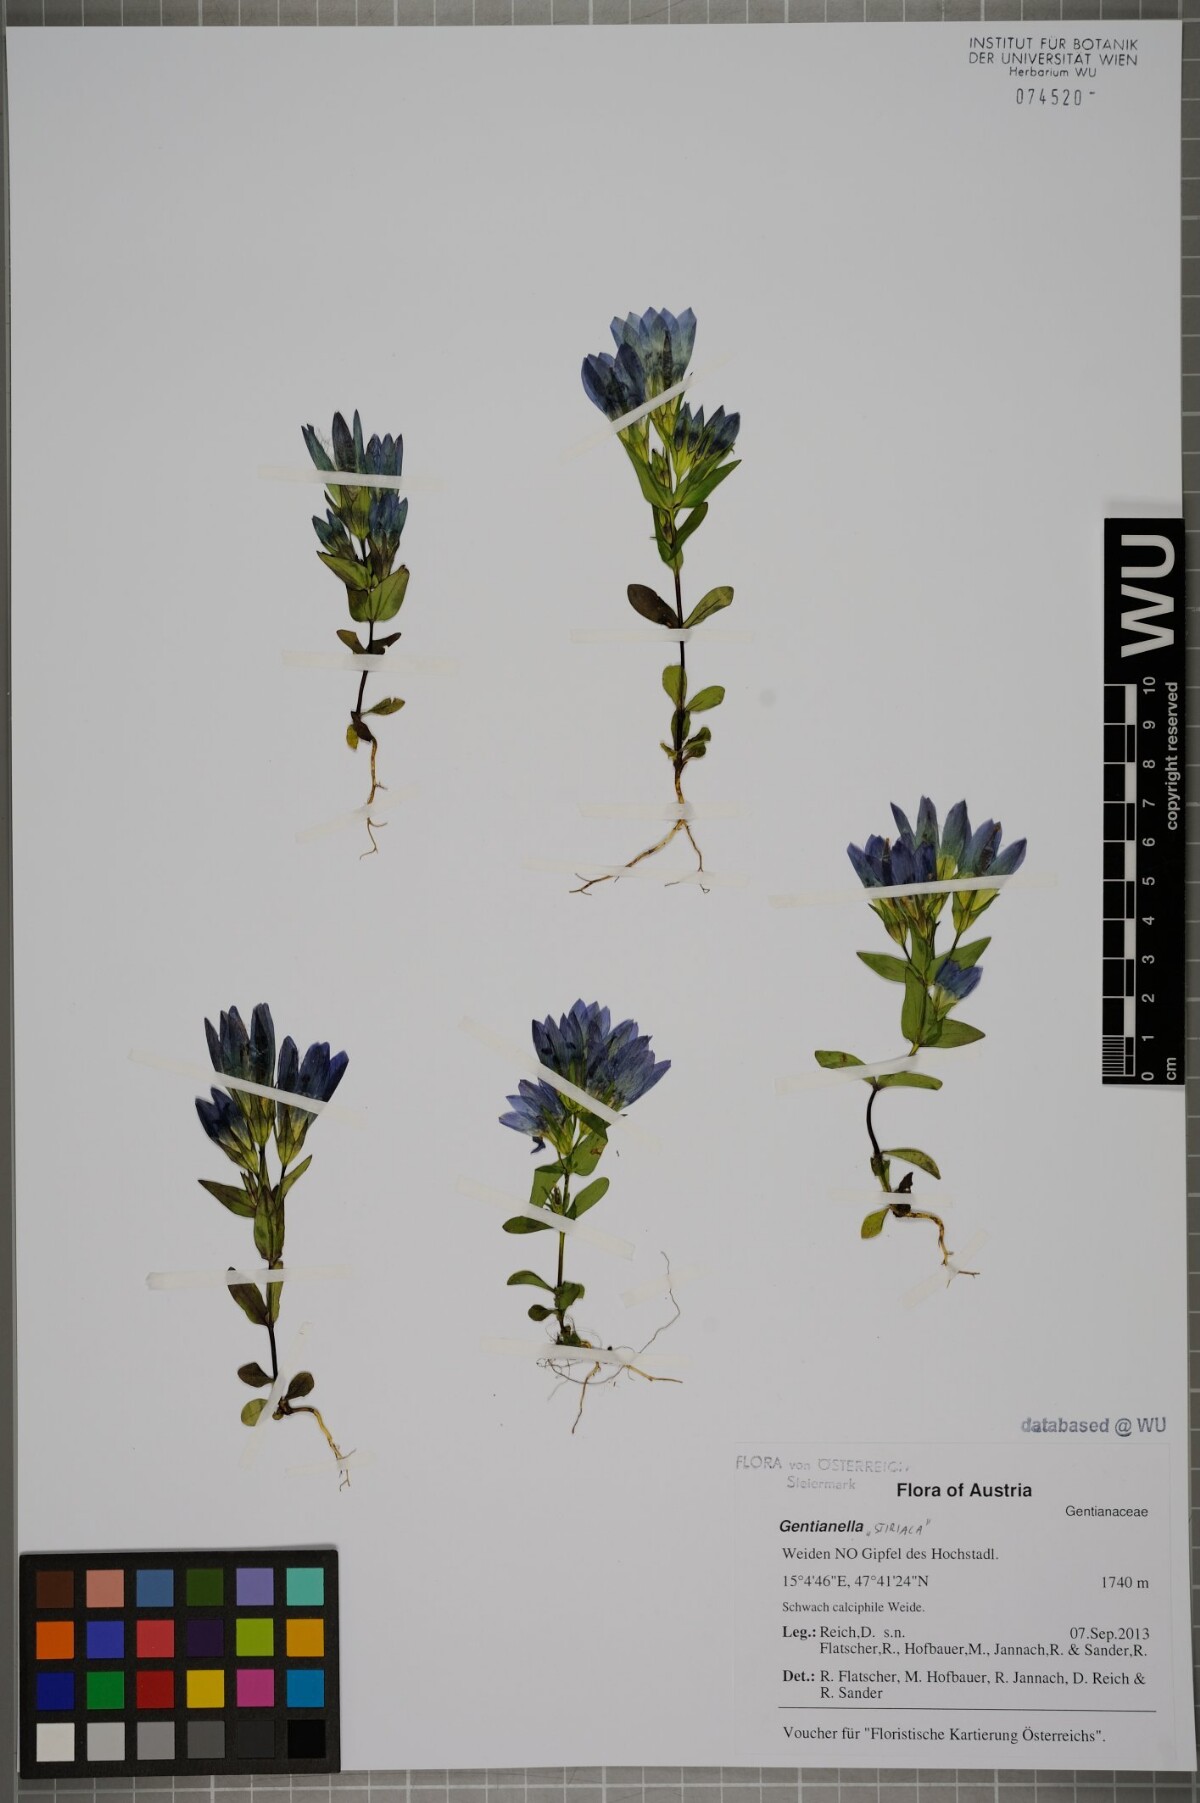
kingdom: Plantae
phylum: Tracheophyta
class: Magnoliopsida
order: Gentianales
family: Gentianaceae
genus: Gentianella
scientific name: Gentianella
